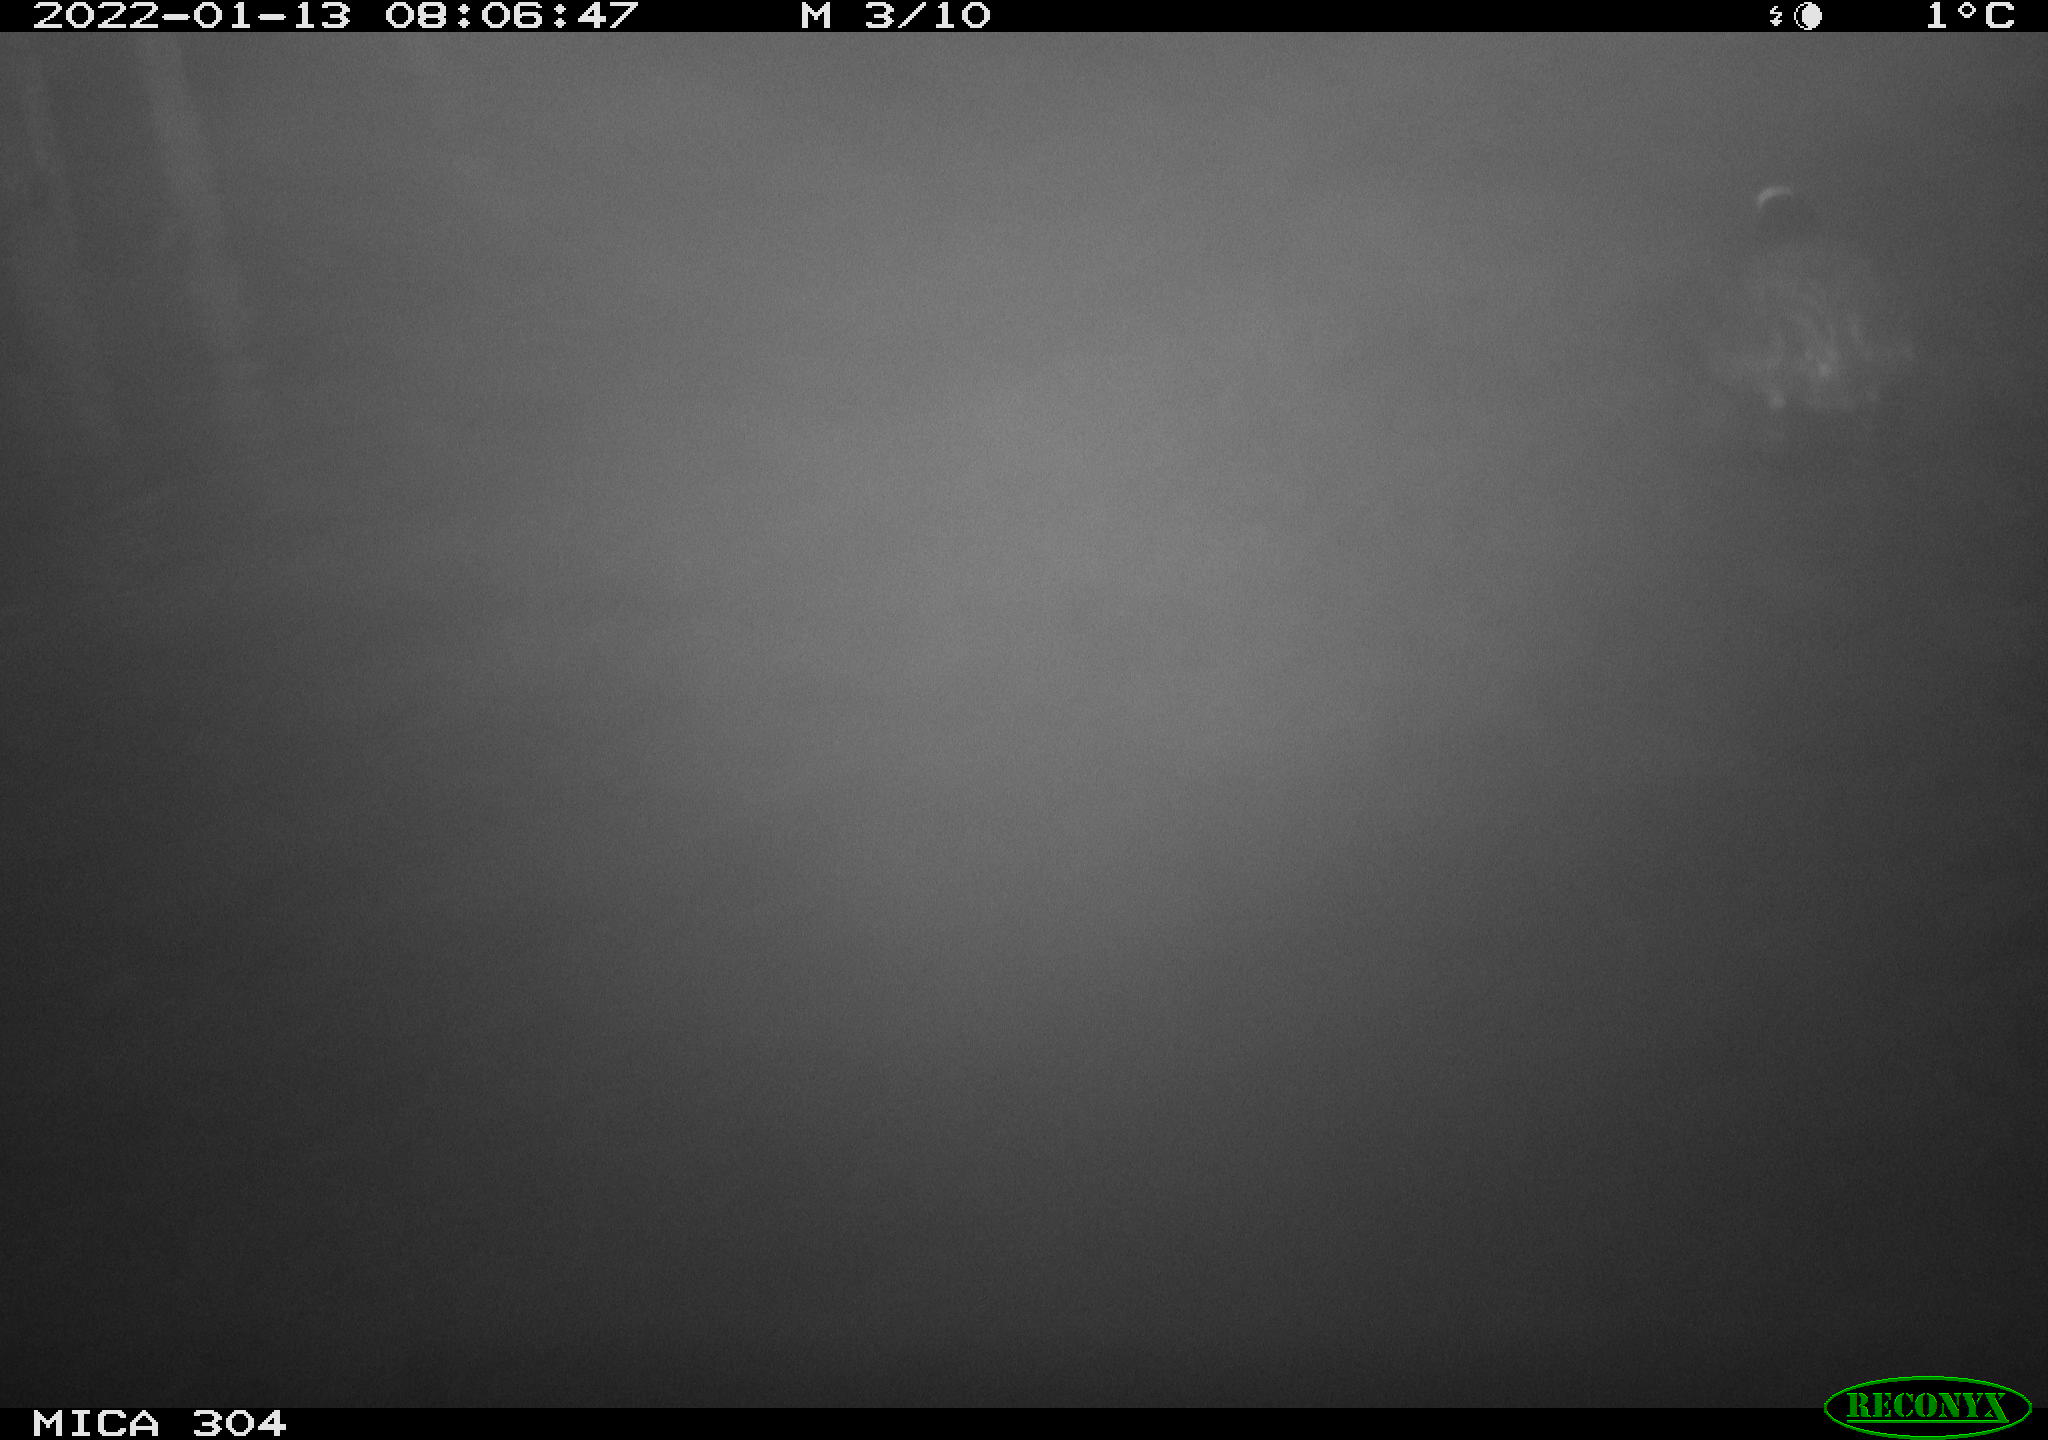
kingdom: Animalia
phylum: Chordata
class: Aves
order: Gruiformes
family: Rallidae
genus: Fulica
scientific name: Fulica atra
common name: Eurasian coot
